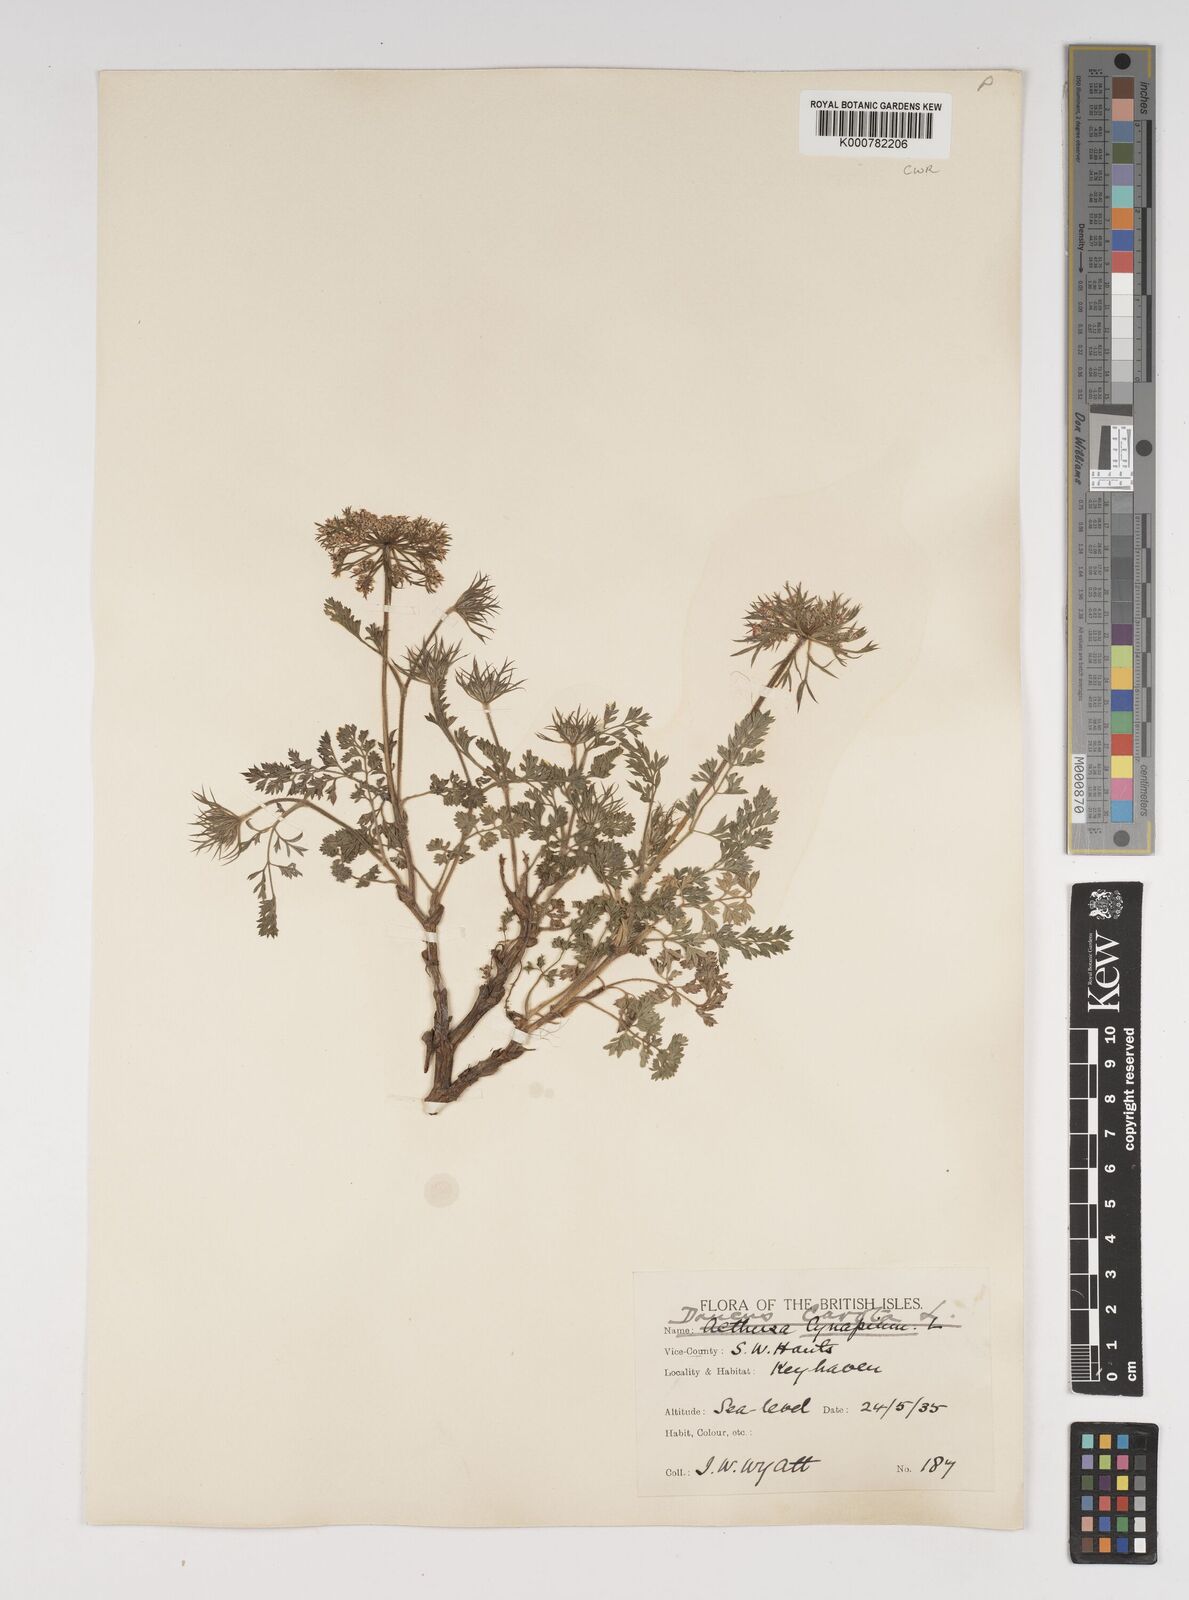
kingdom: Plantae
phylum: Tracheophyta
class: Magnoliopsida
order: Apiales
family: Apiaceae
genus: Daucus
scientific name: Daucus carota
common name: Wild carrot
